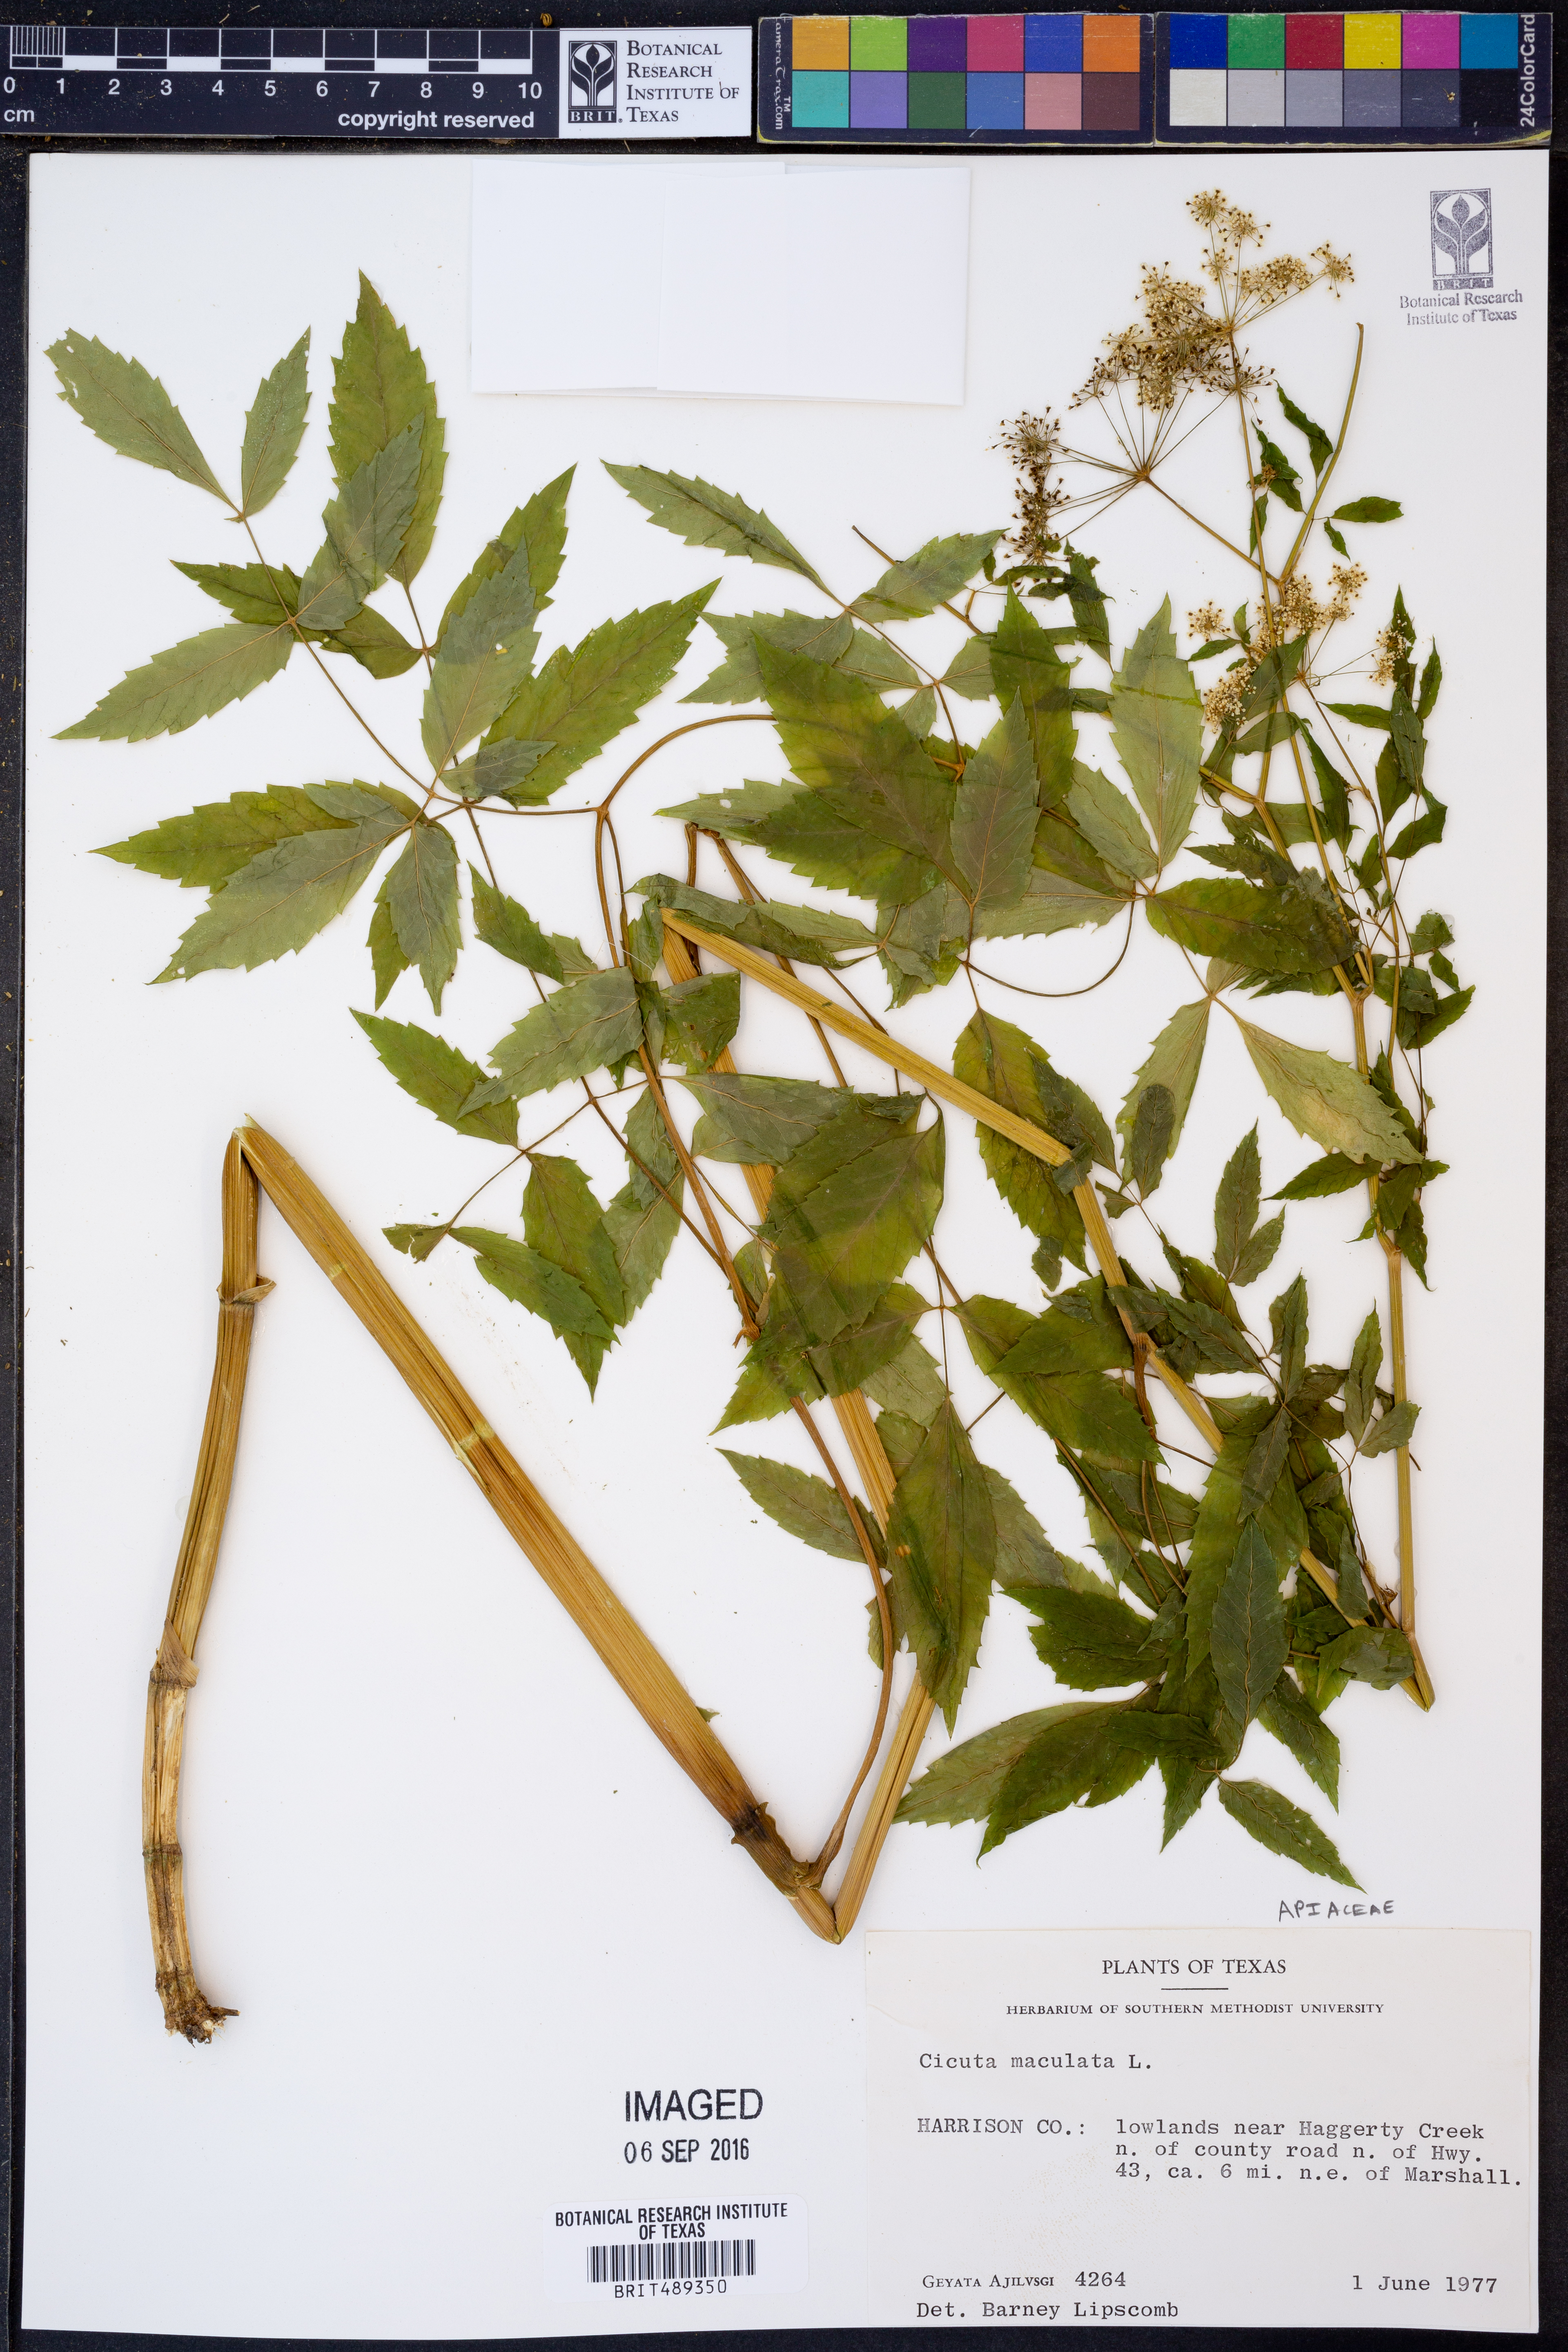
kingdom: Plantae
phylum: Tracheophyta
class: Magnoliopsida
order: Apiales
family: Apiaceae
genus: Cicuta
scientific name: Cicuta maculata
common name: Spotted cowbane
